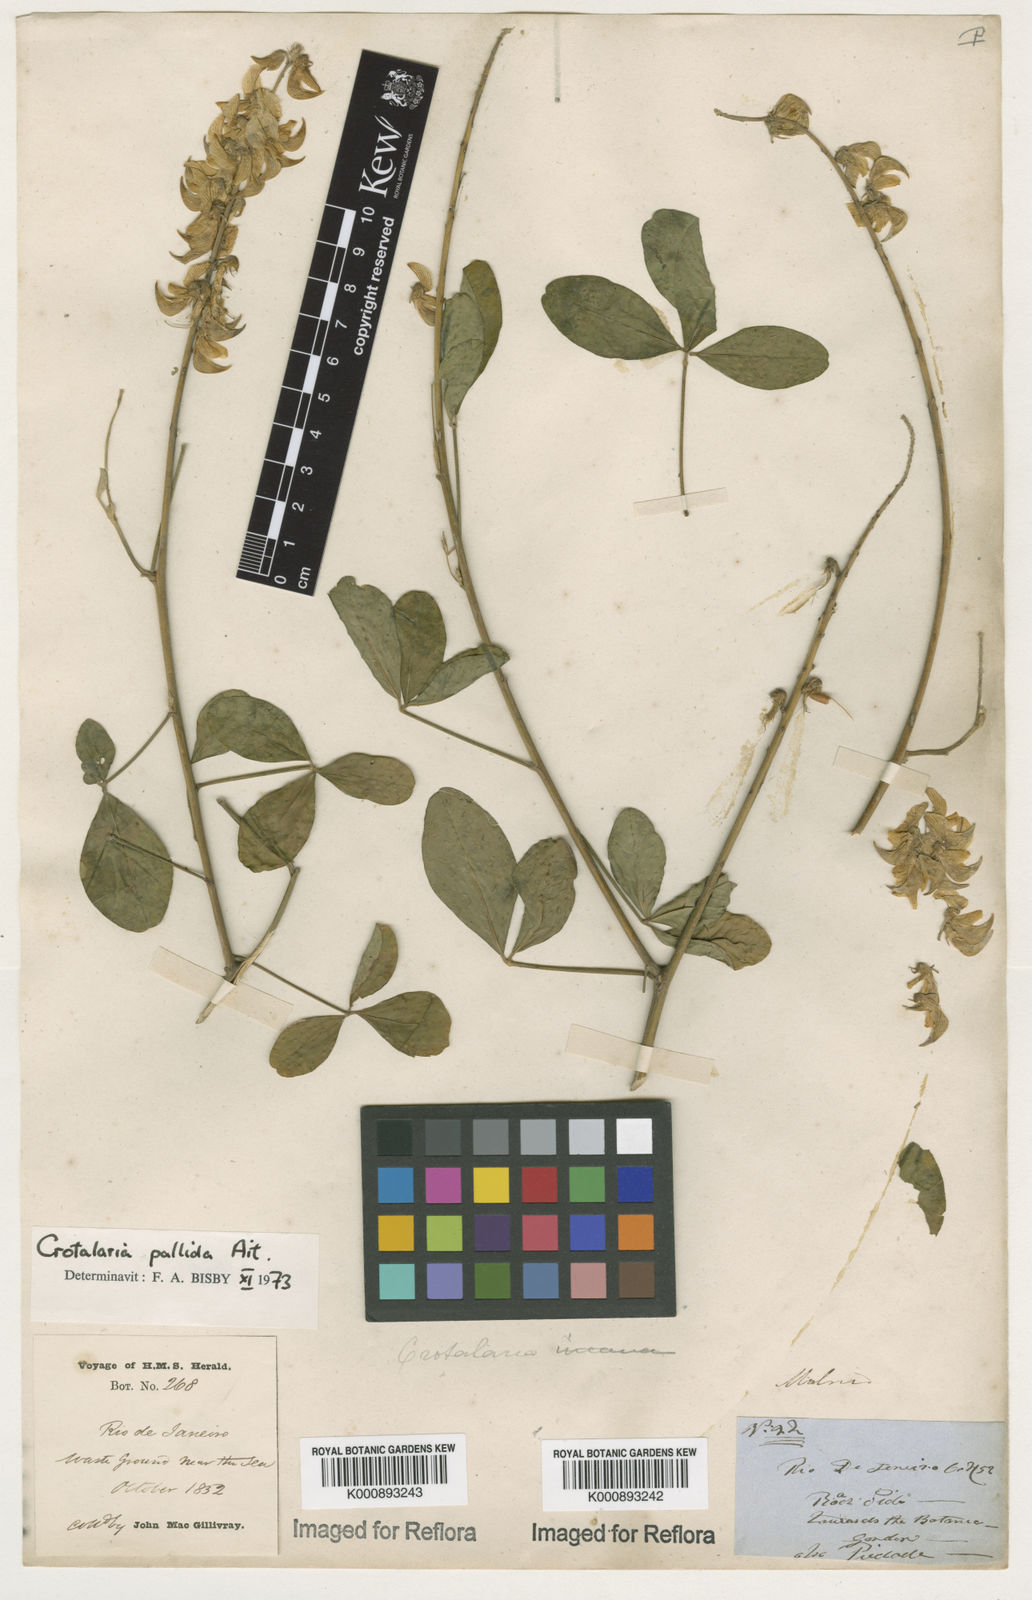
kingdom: Plantae
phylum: Tracheophyta
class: Magnoliopsida
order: Fabales
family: Fabaceae
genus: Crotalaria
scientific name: Crotalaria pallida
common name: Smooth rattlebox
